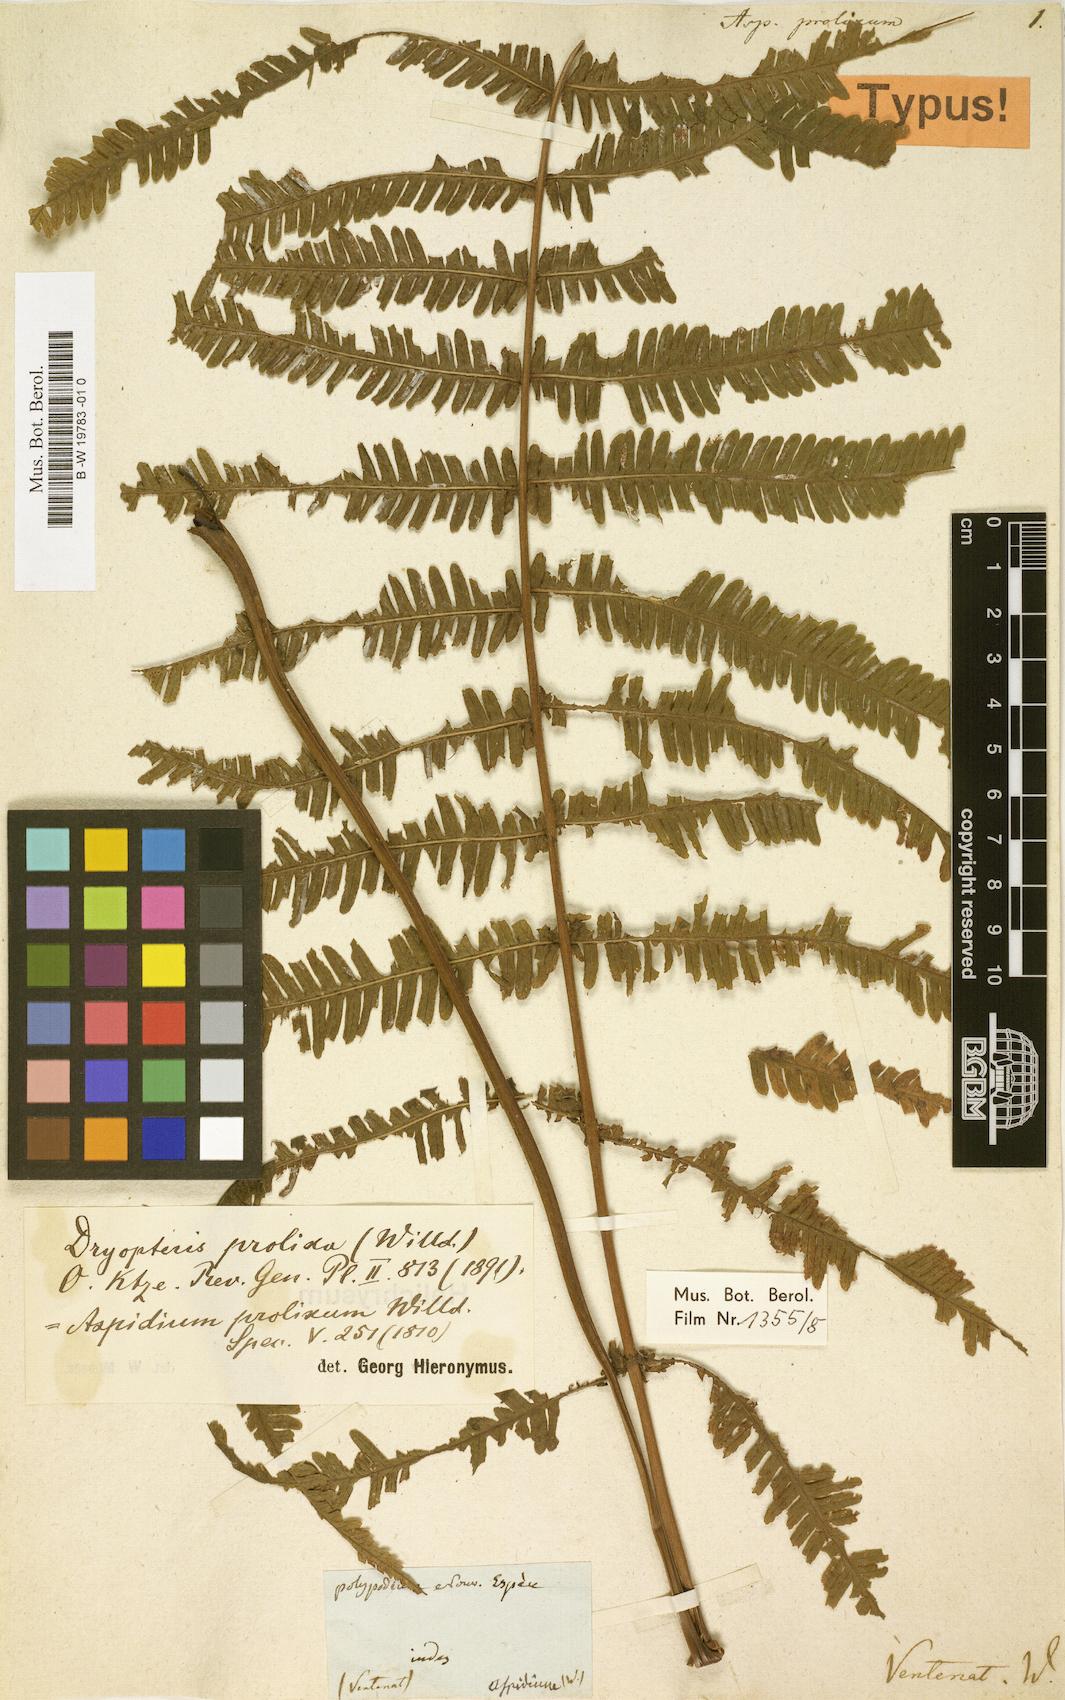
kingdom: Plantae
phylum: Tracheophyta
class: Polypodiopsida
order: Polypodiales
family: Thelypteridaceae
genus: Christella
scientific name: Christella prolixa
